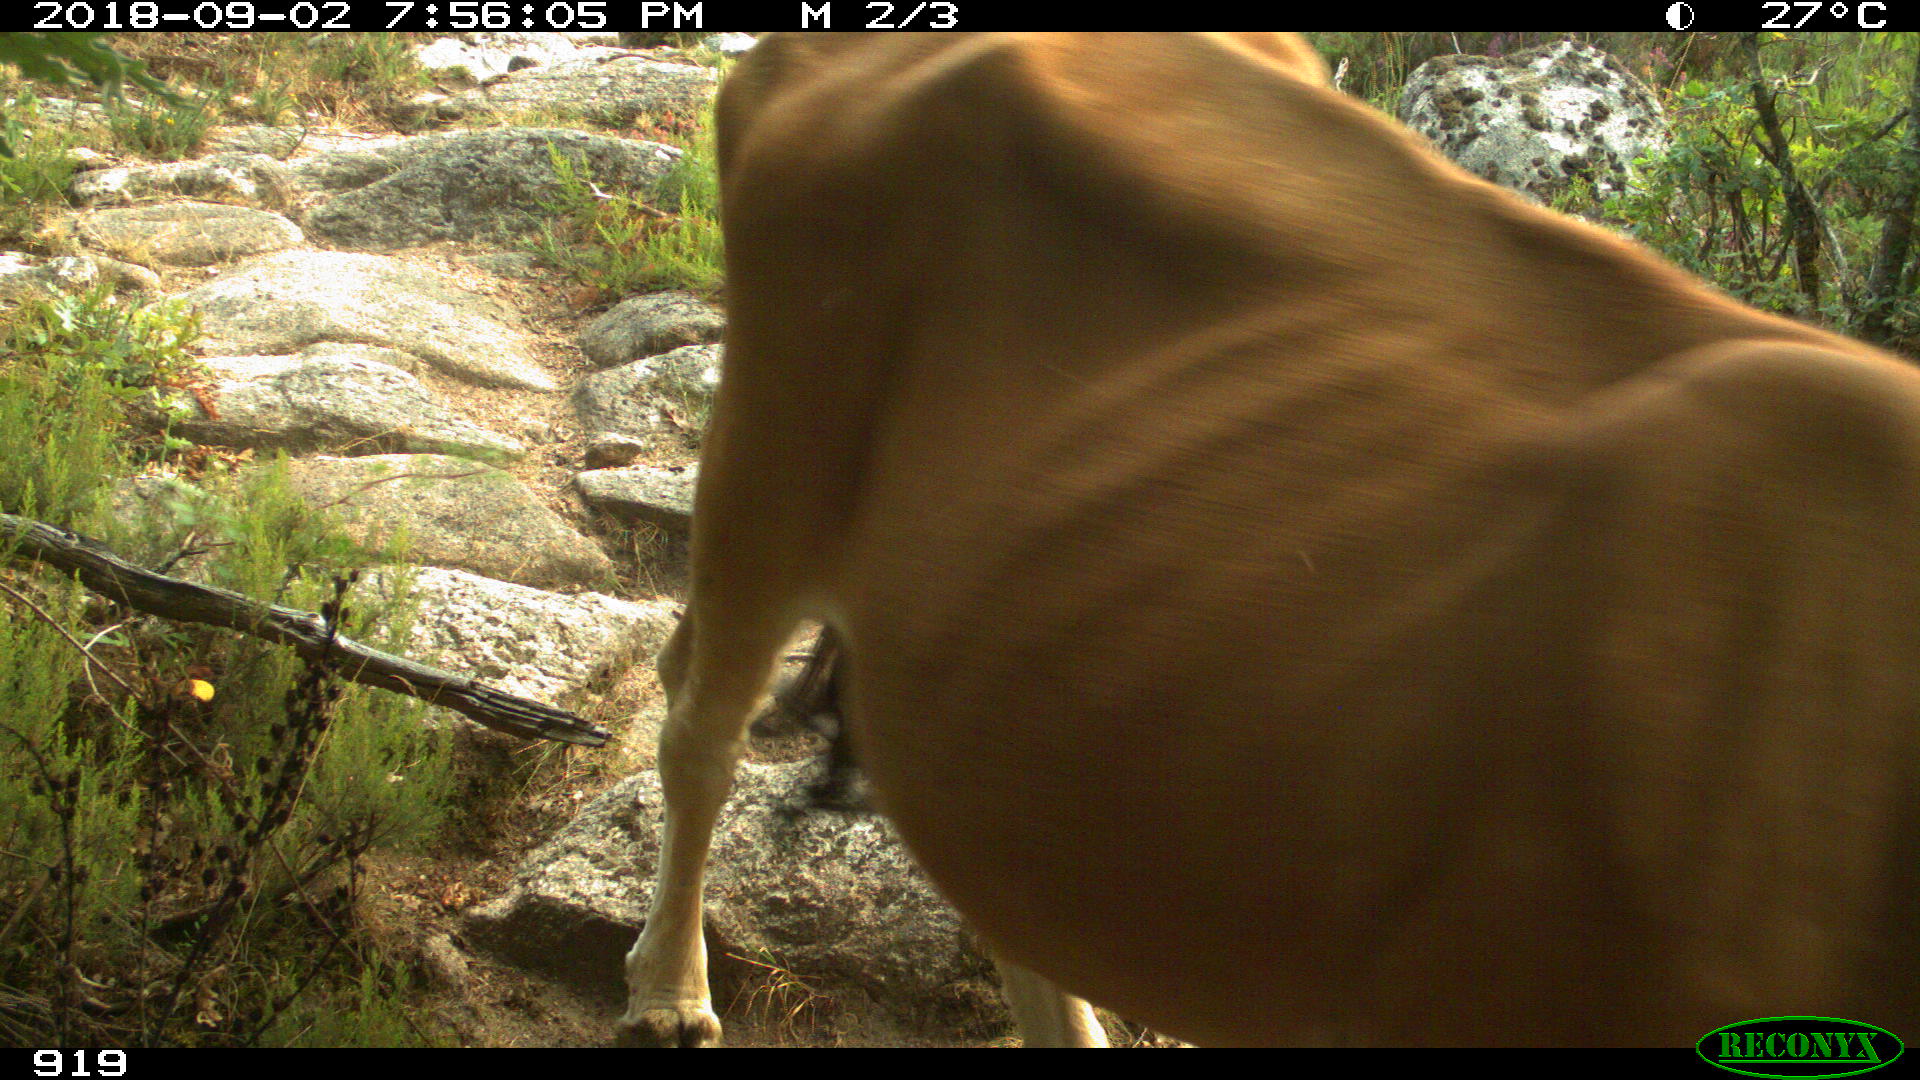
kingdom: Animalia
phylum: Chordata
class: Mammalia
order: Artiodactyla
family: Bovidae
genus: Bos
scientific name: Bos taurus
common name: Domesticated cattle
